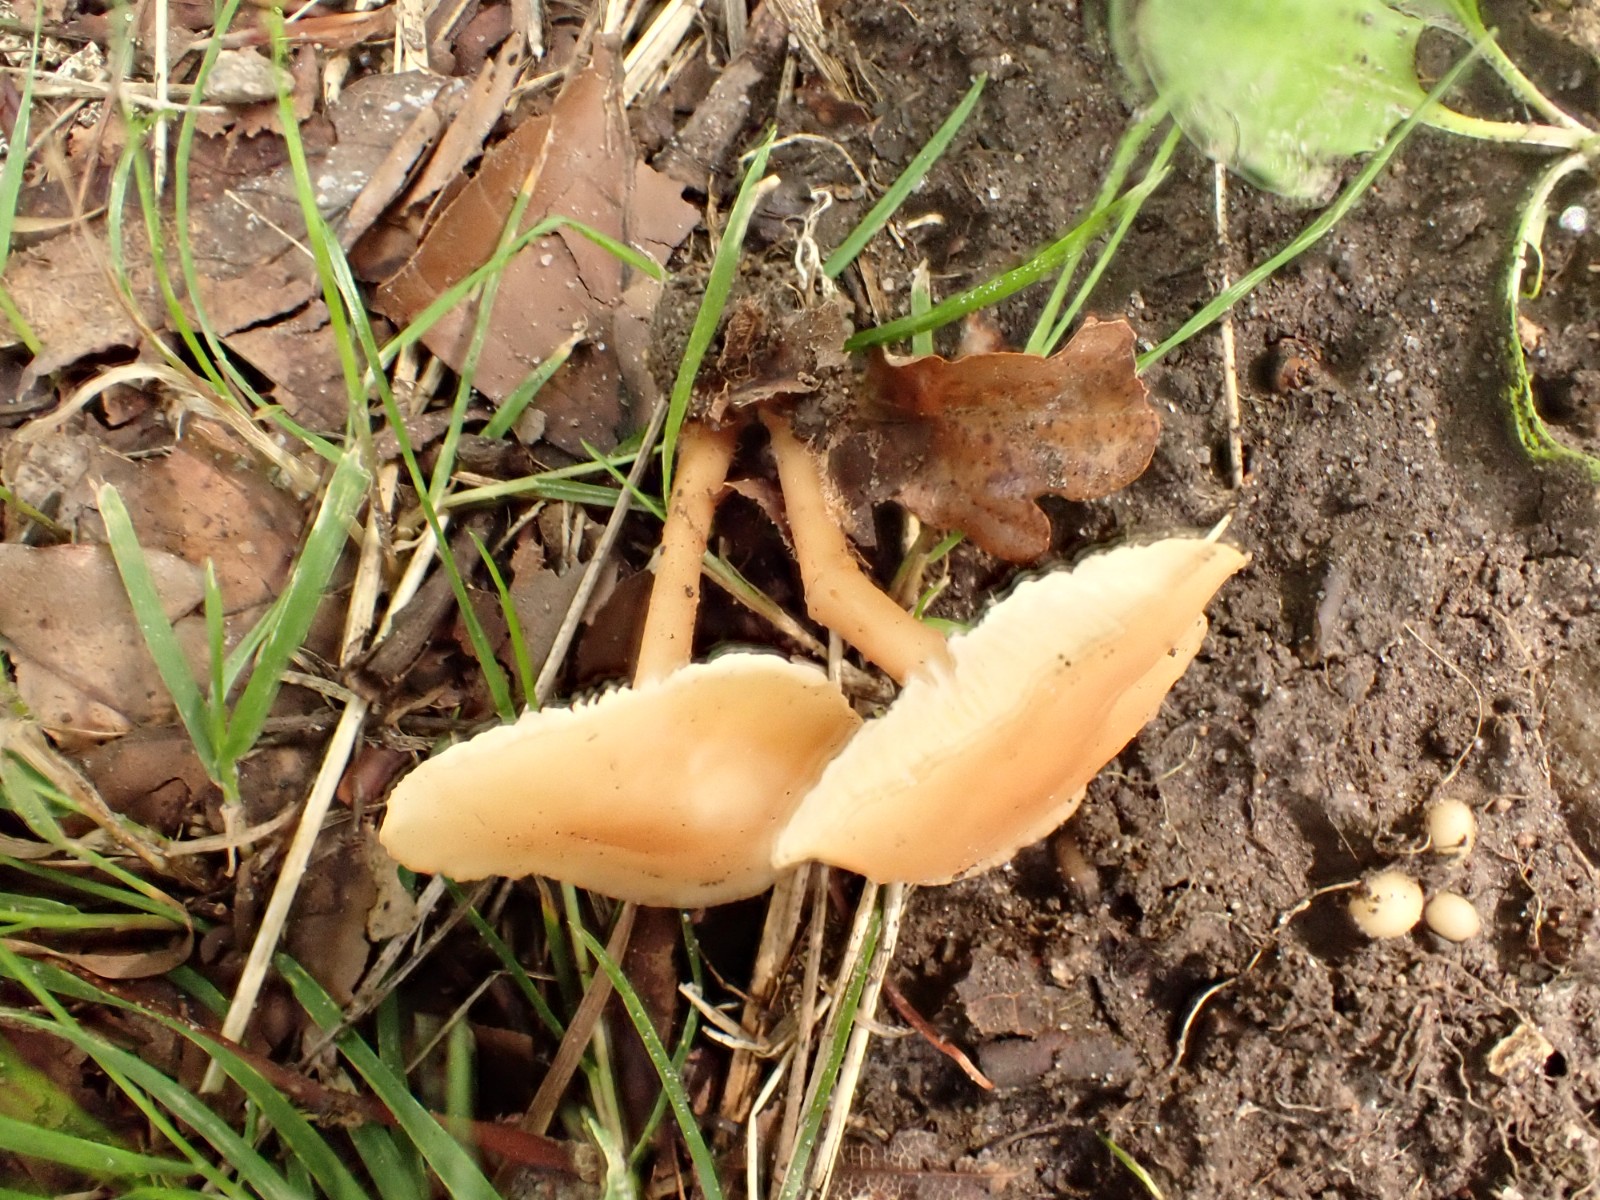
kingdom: Fungi
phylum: Basidiomycota
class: Agaricomycetes
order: Agaricales
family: Omphalotaceae
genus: Gymnopus
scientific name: Gymnopus dryophilus
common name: løv-fladhat
